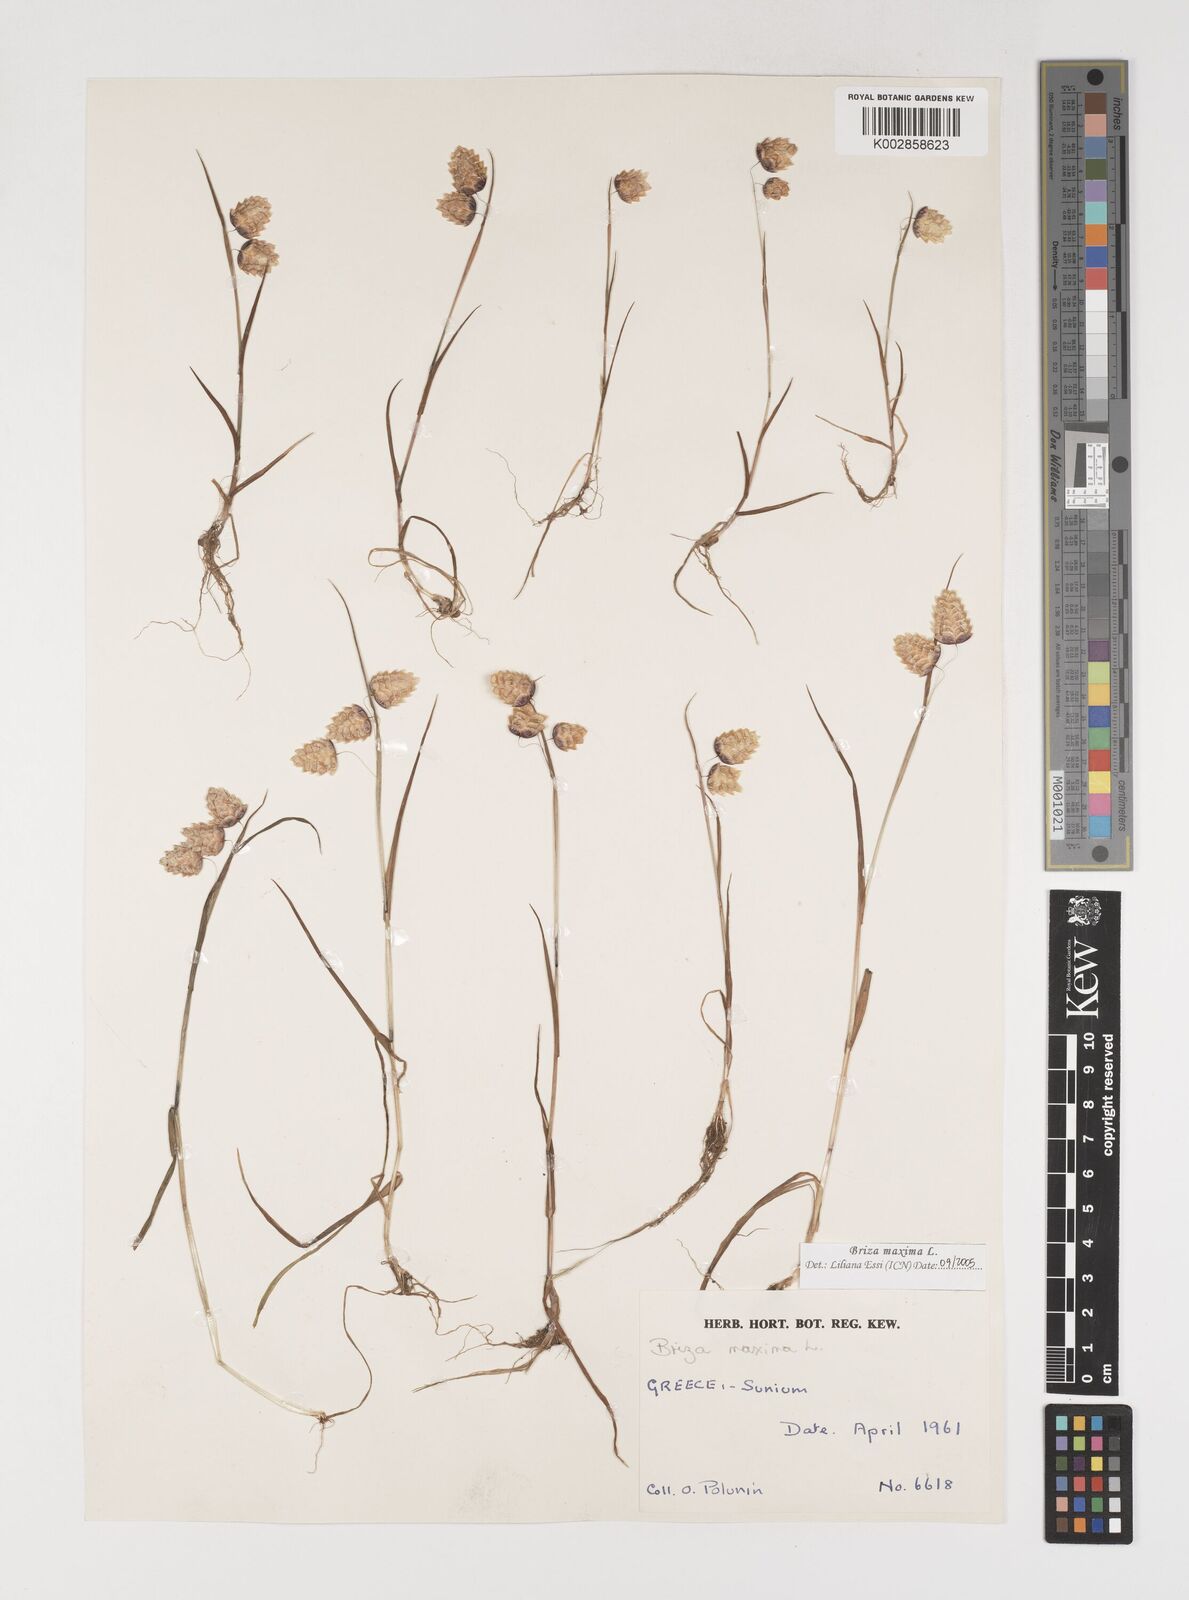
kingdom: Plantae
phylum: Tracheophyta
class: Liliopsida
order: Poales
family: Poaceae
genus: Briza
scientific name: Briza maxima
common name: Big quakinggrass
